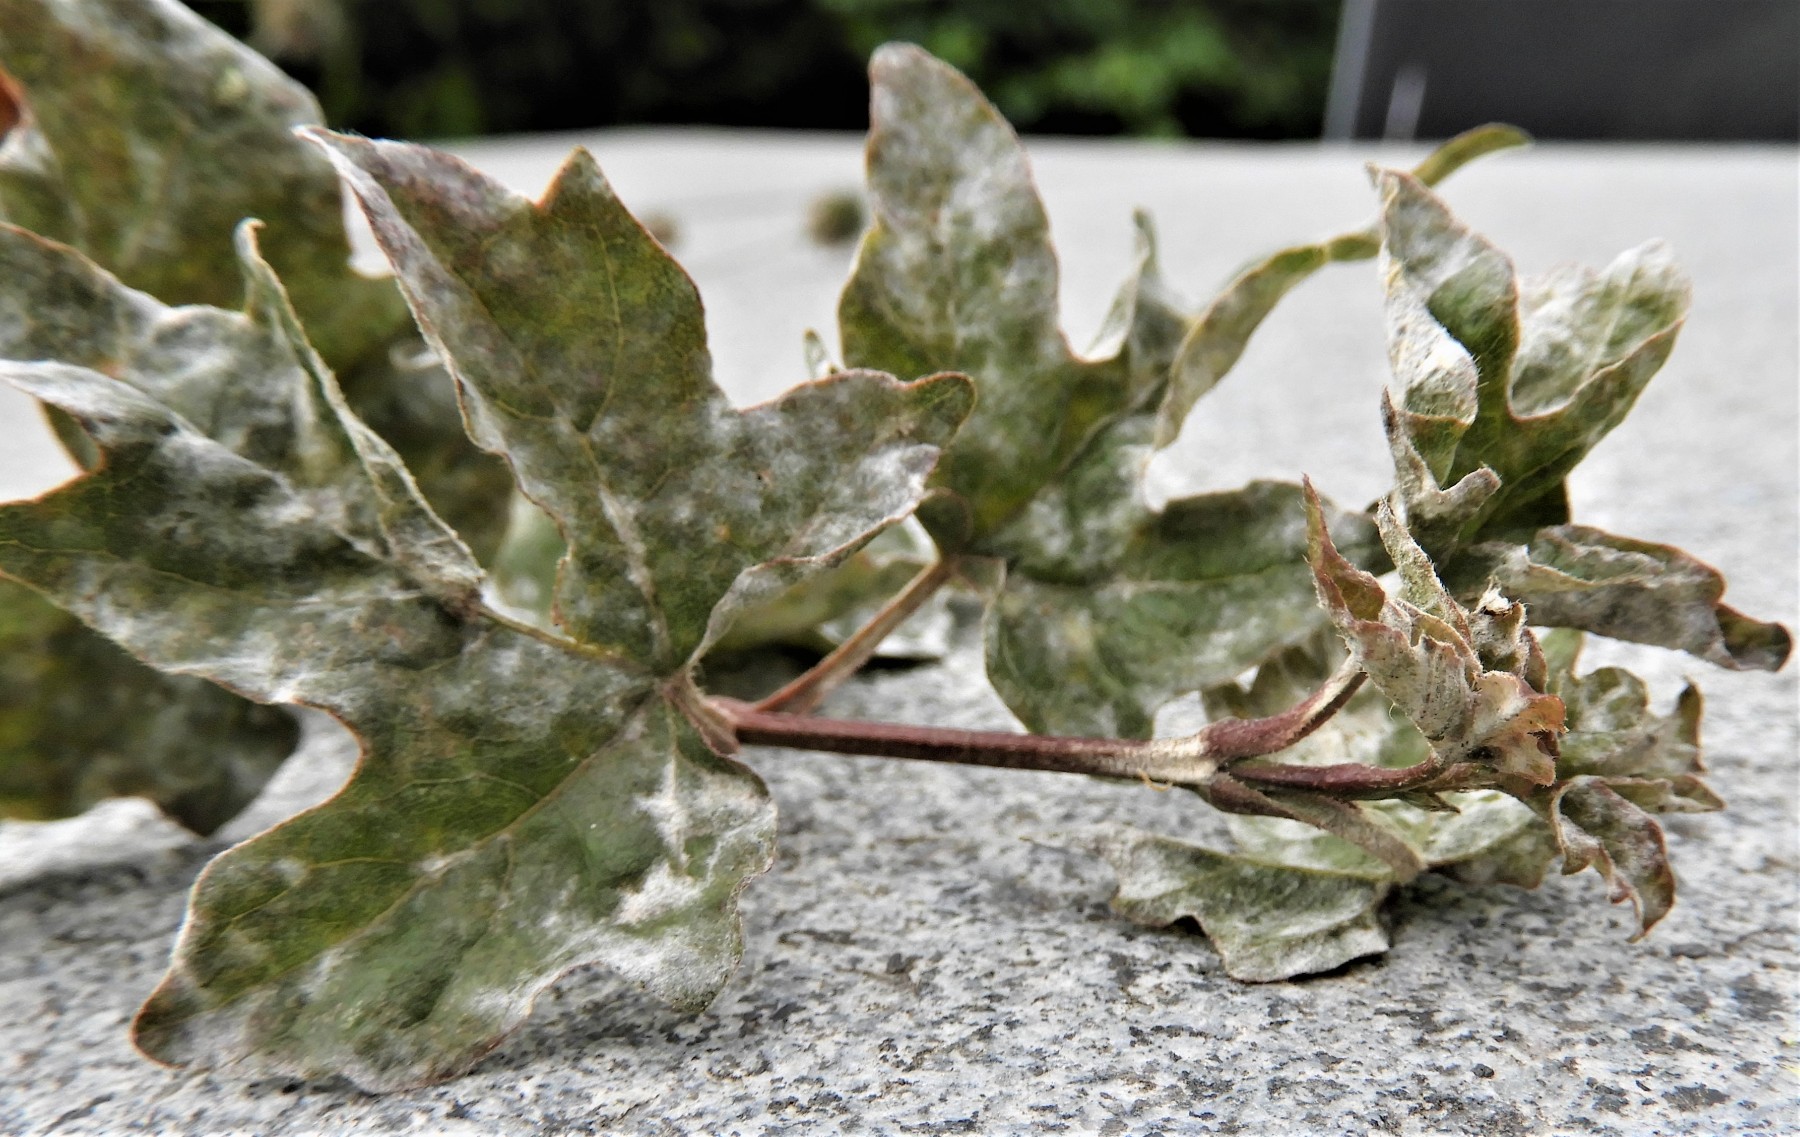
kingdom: Fungi
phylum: Ascomycota
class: Leotiomycetes
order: Helotiales
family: Erysiphaceae
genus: Sawadaea
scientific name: Sawadaea bicornis
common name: Maple mildew
